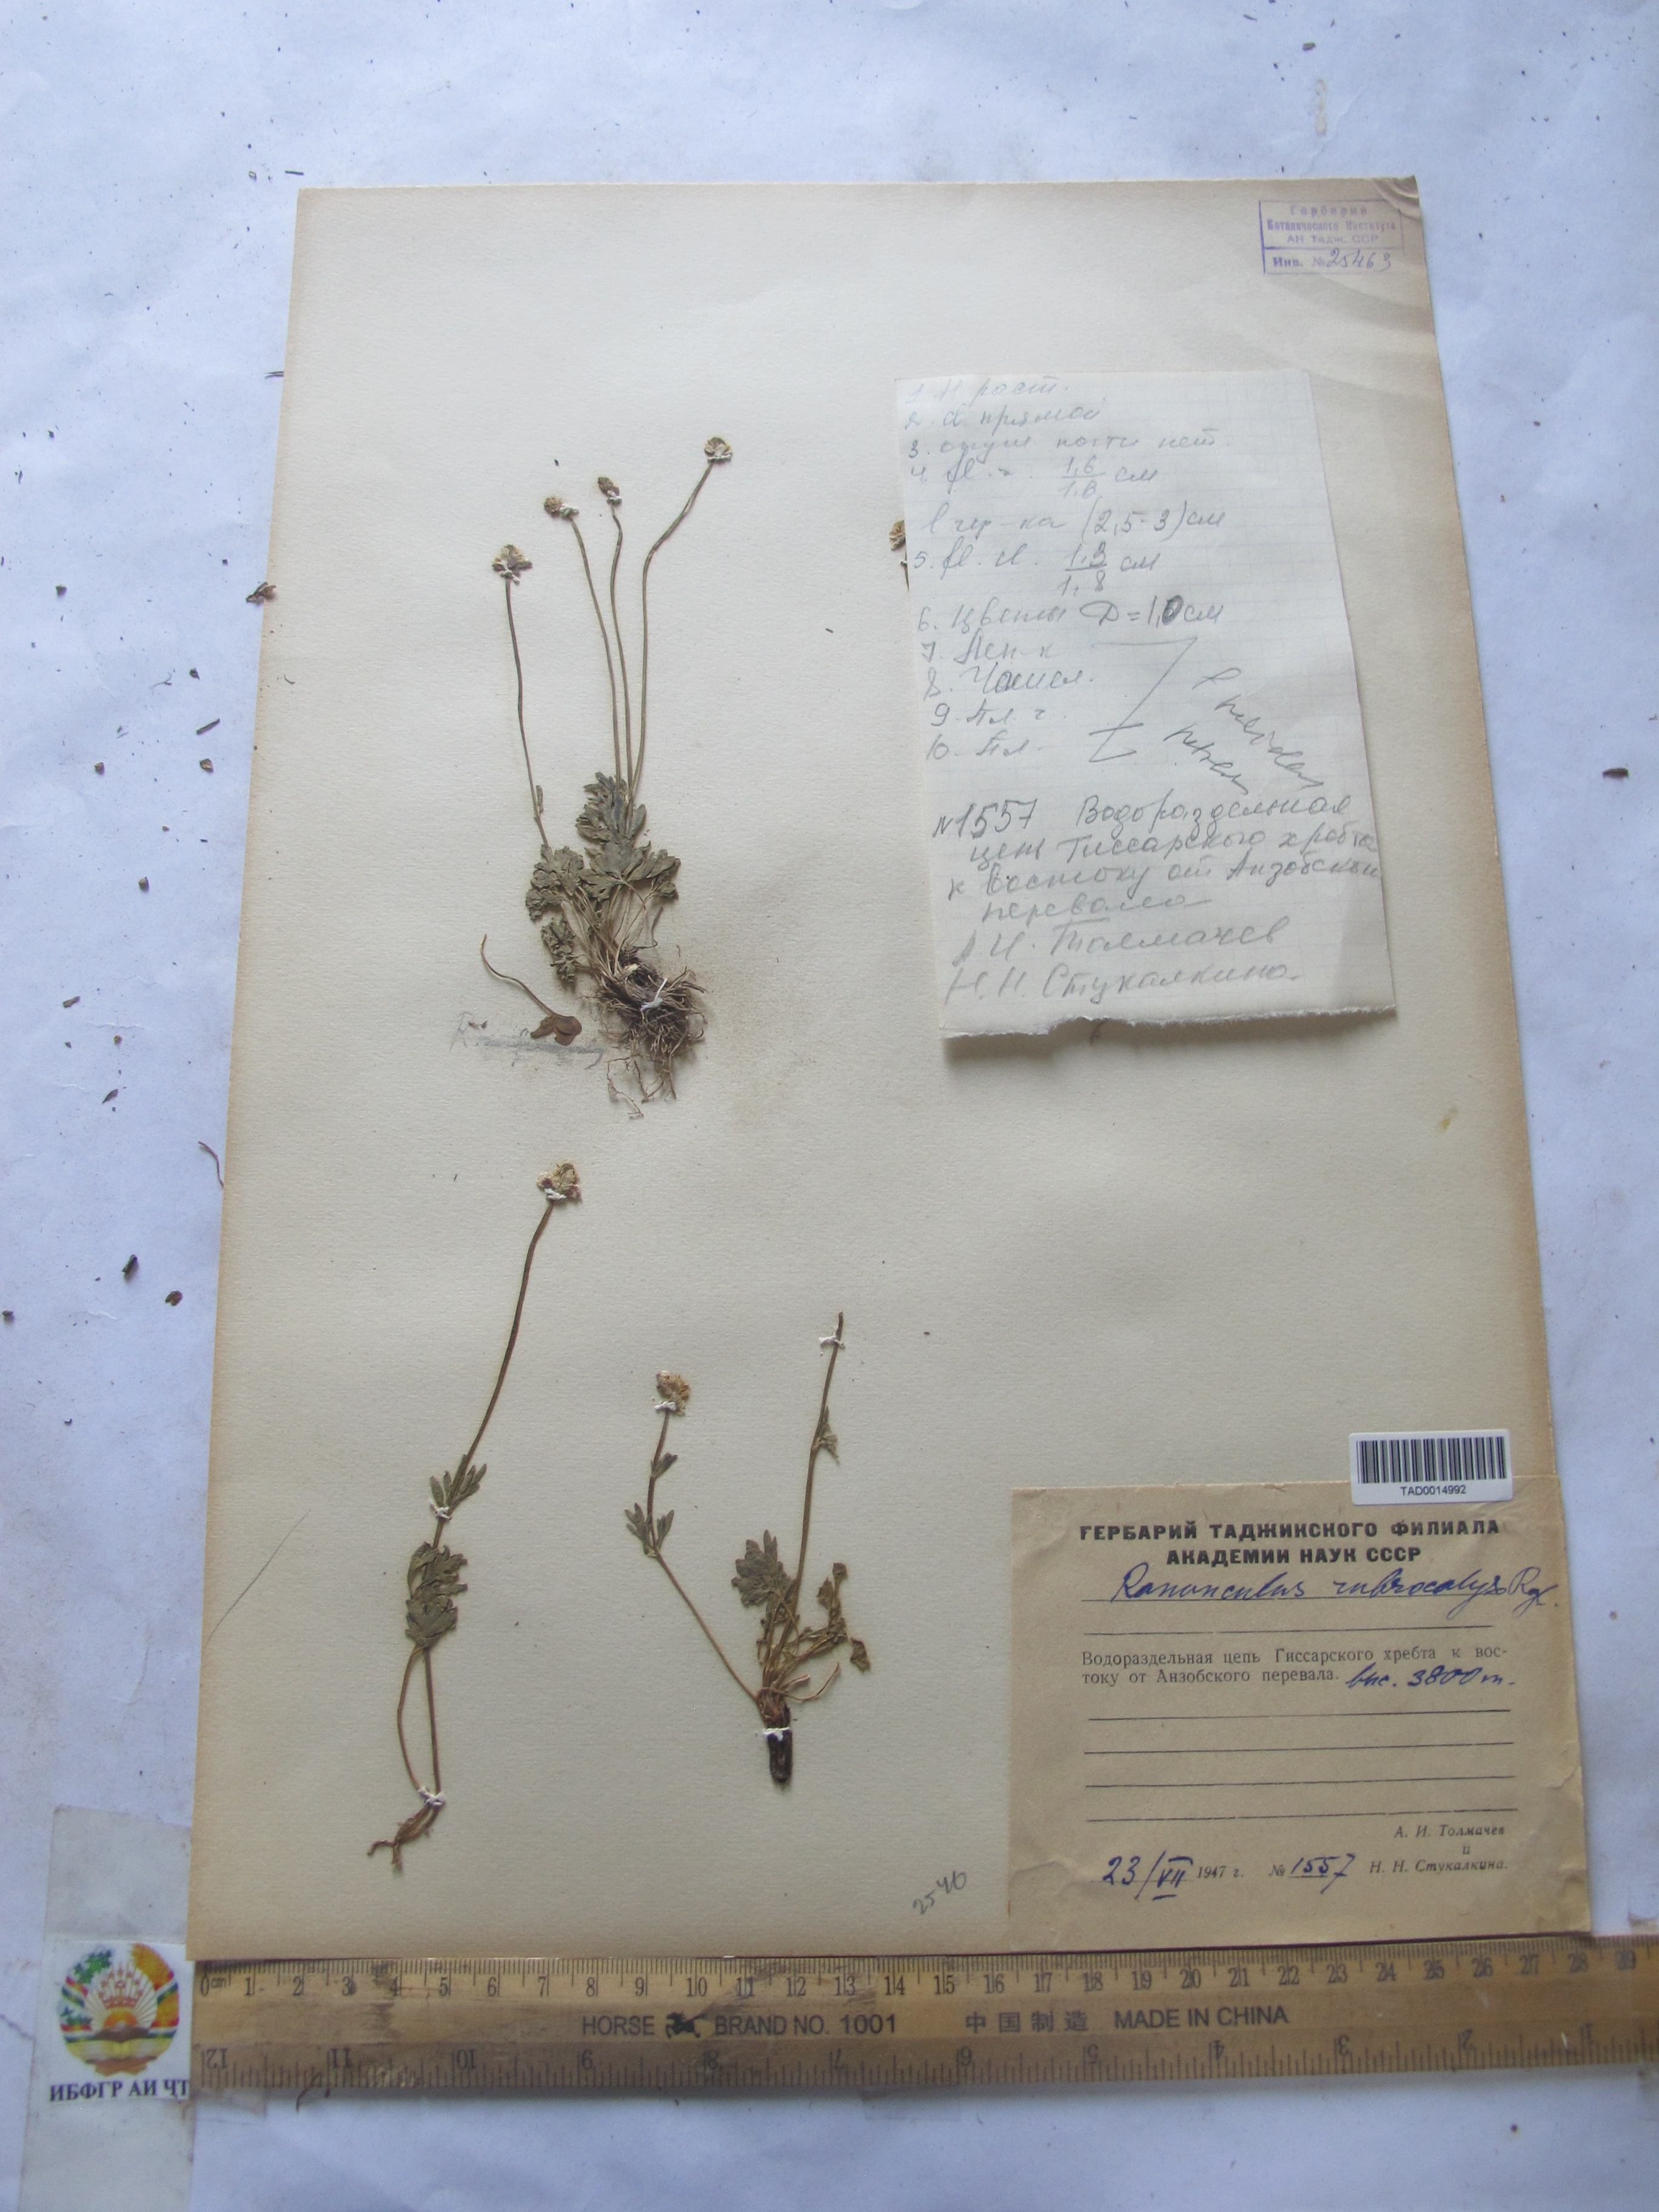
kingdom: Plantae
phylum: Tracheophyta
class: Magnoliopsida
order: Ranunculales
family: Ranunculaceae
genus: Ranunculus
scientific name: Ranunculus rubrocalyx
